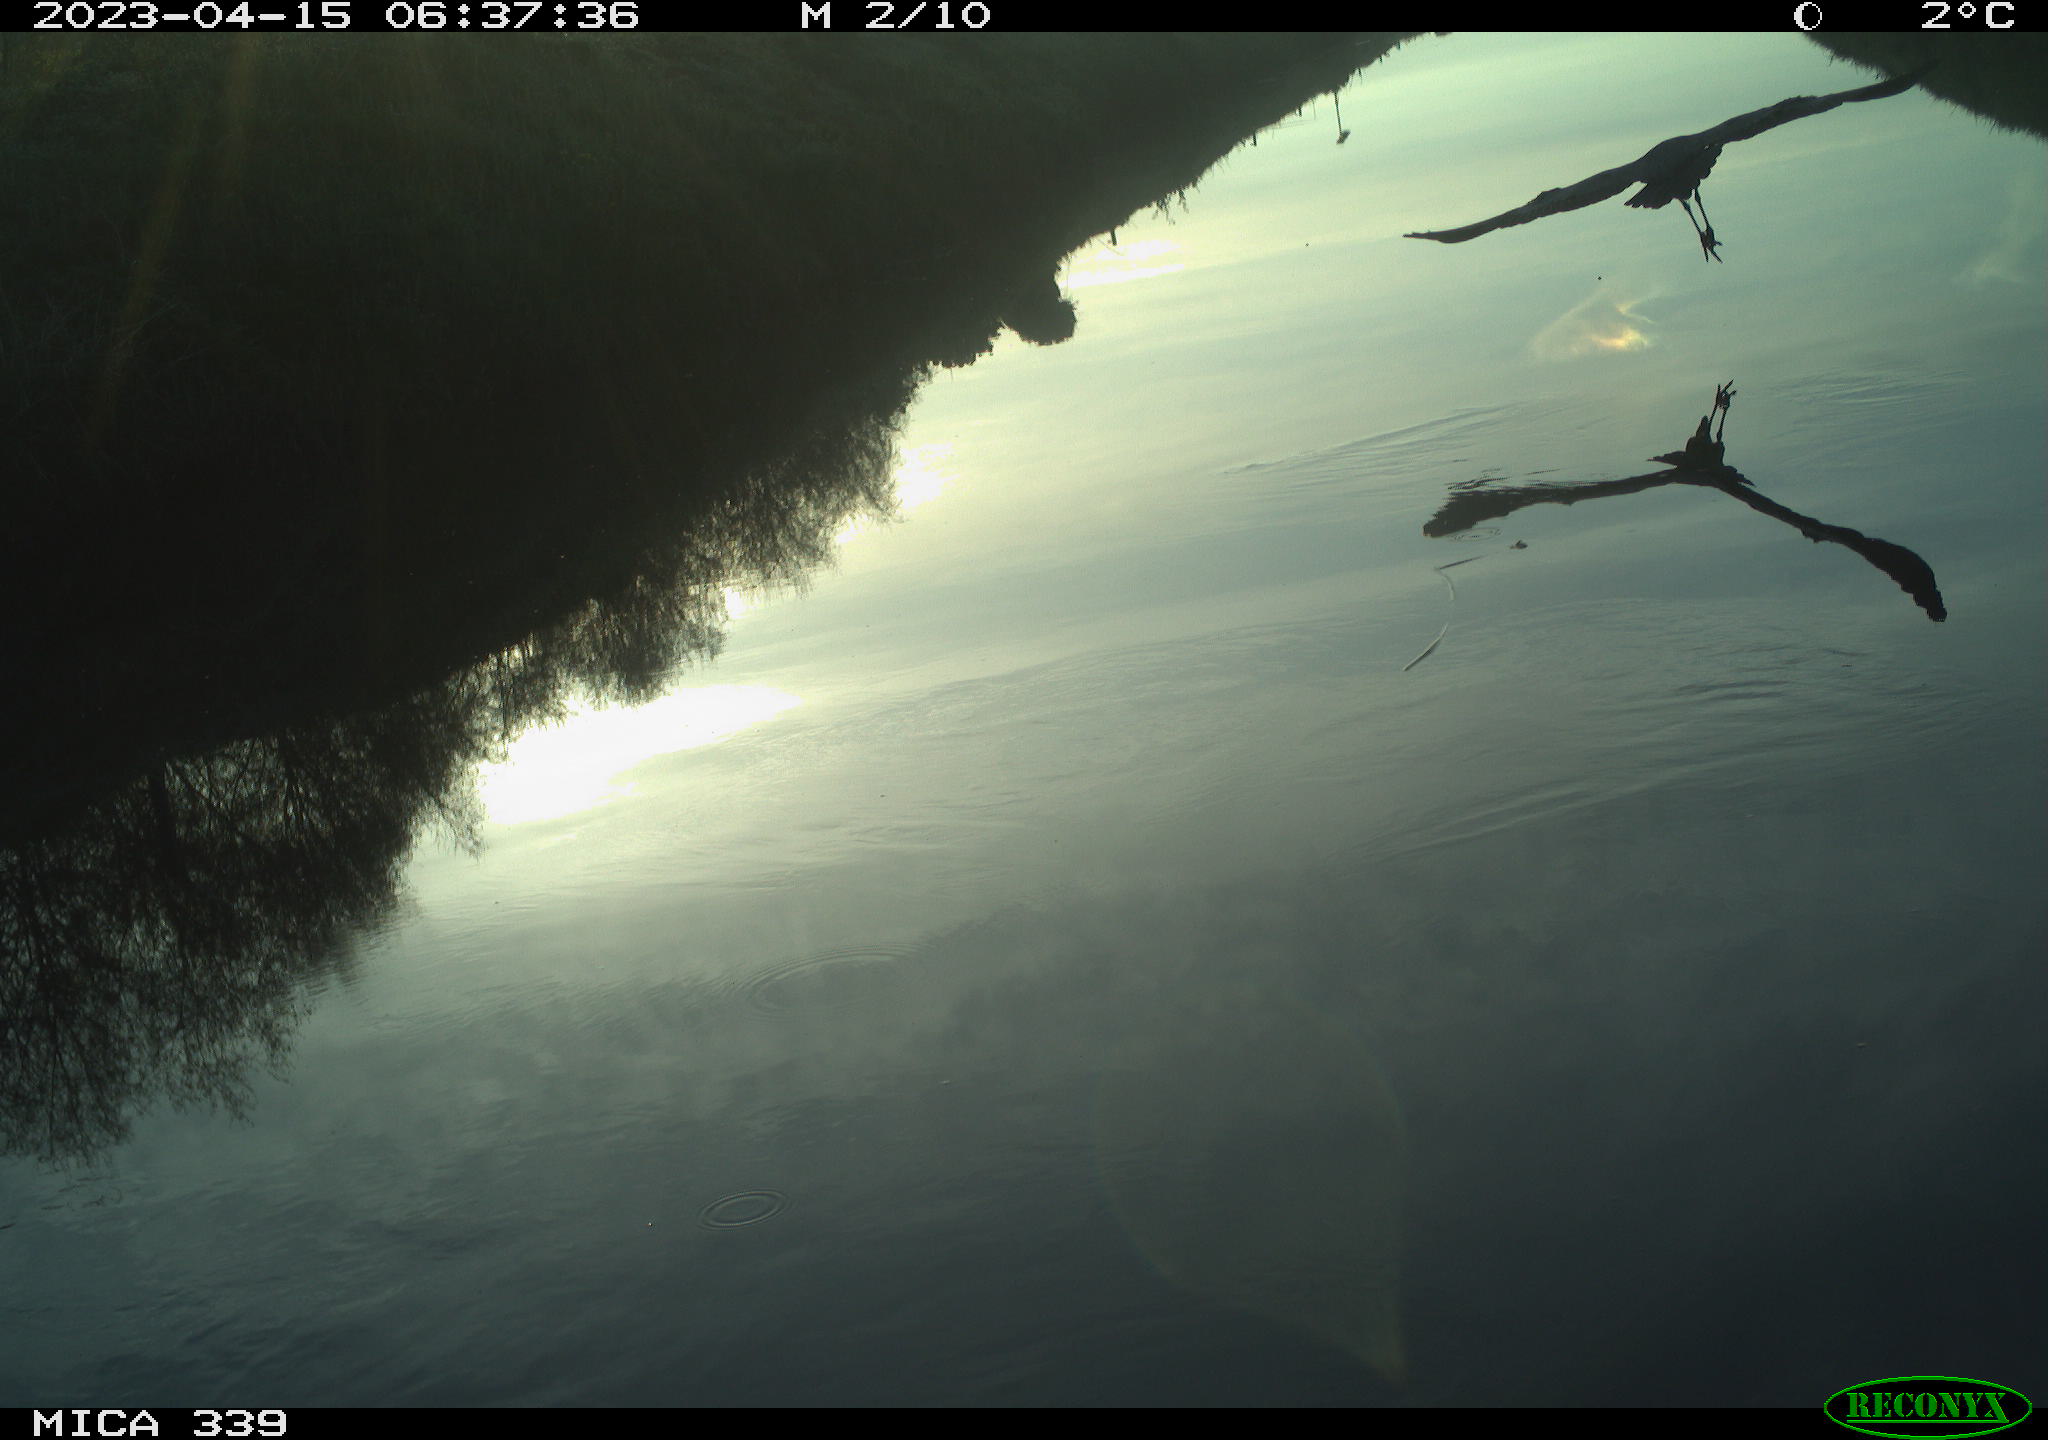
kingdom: Animalia
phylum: Chordata
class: Aves
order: Pelecaniformes
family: Ardeidae
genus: Ardea
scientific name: Ardea cinerea
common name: Grey heron
